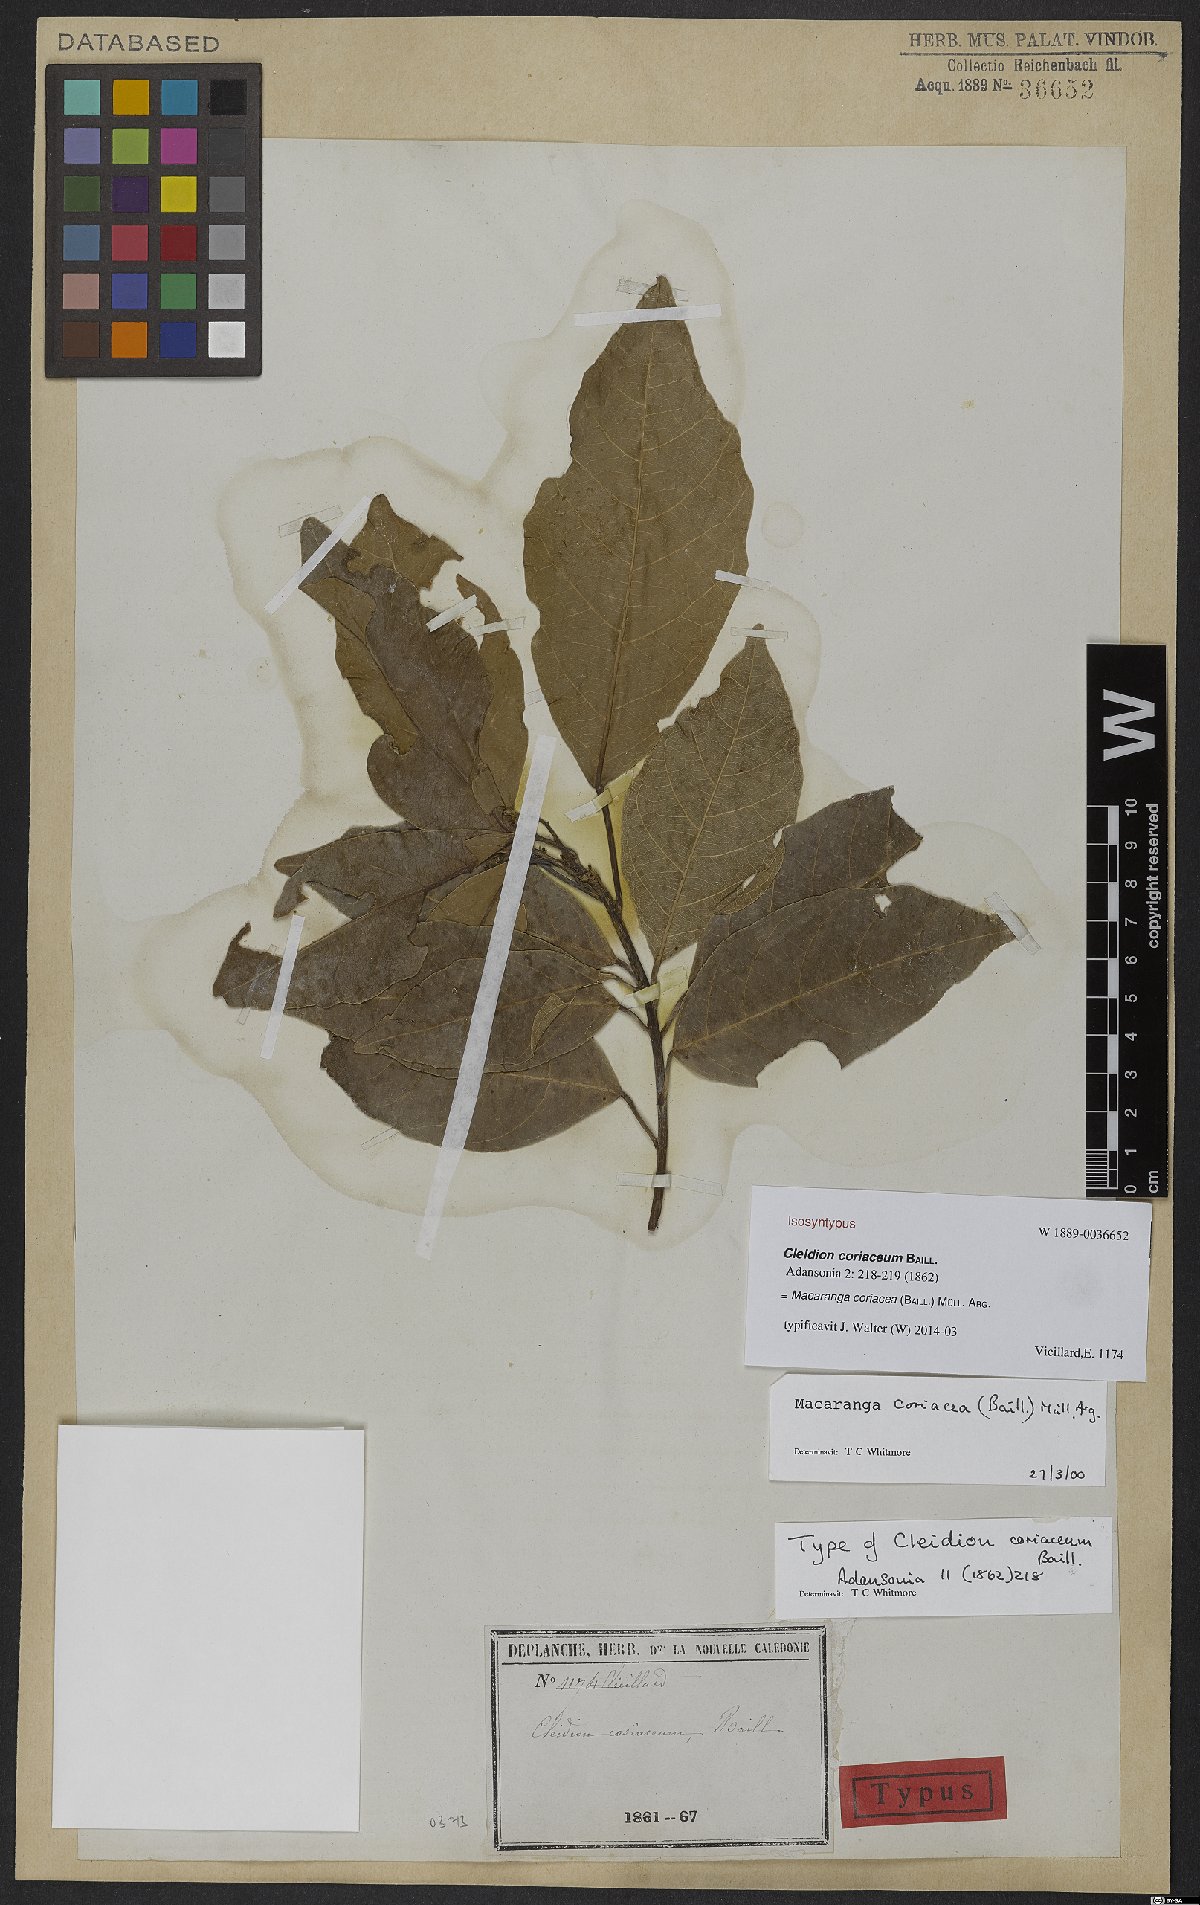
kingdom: Plantae
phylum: Tracheophyta
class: Magnoliopsida
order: Malpighiales
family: Euphorbiaceae
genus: Macaranga
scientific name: Macaranga coriacea
